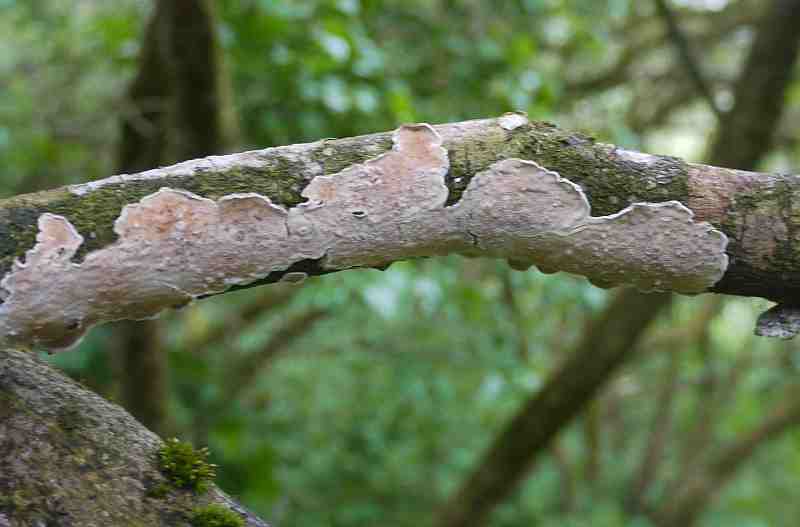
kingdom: Fungi
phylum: Basidiomycota
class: Agaricomycetes
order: Polyporales
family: Irpicaceae
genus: Byssomerulius
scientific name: Byssomerulius corium
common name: læder-åresvamp
